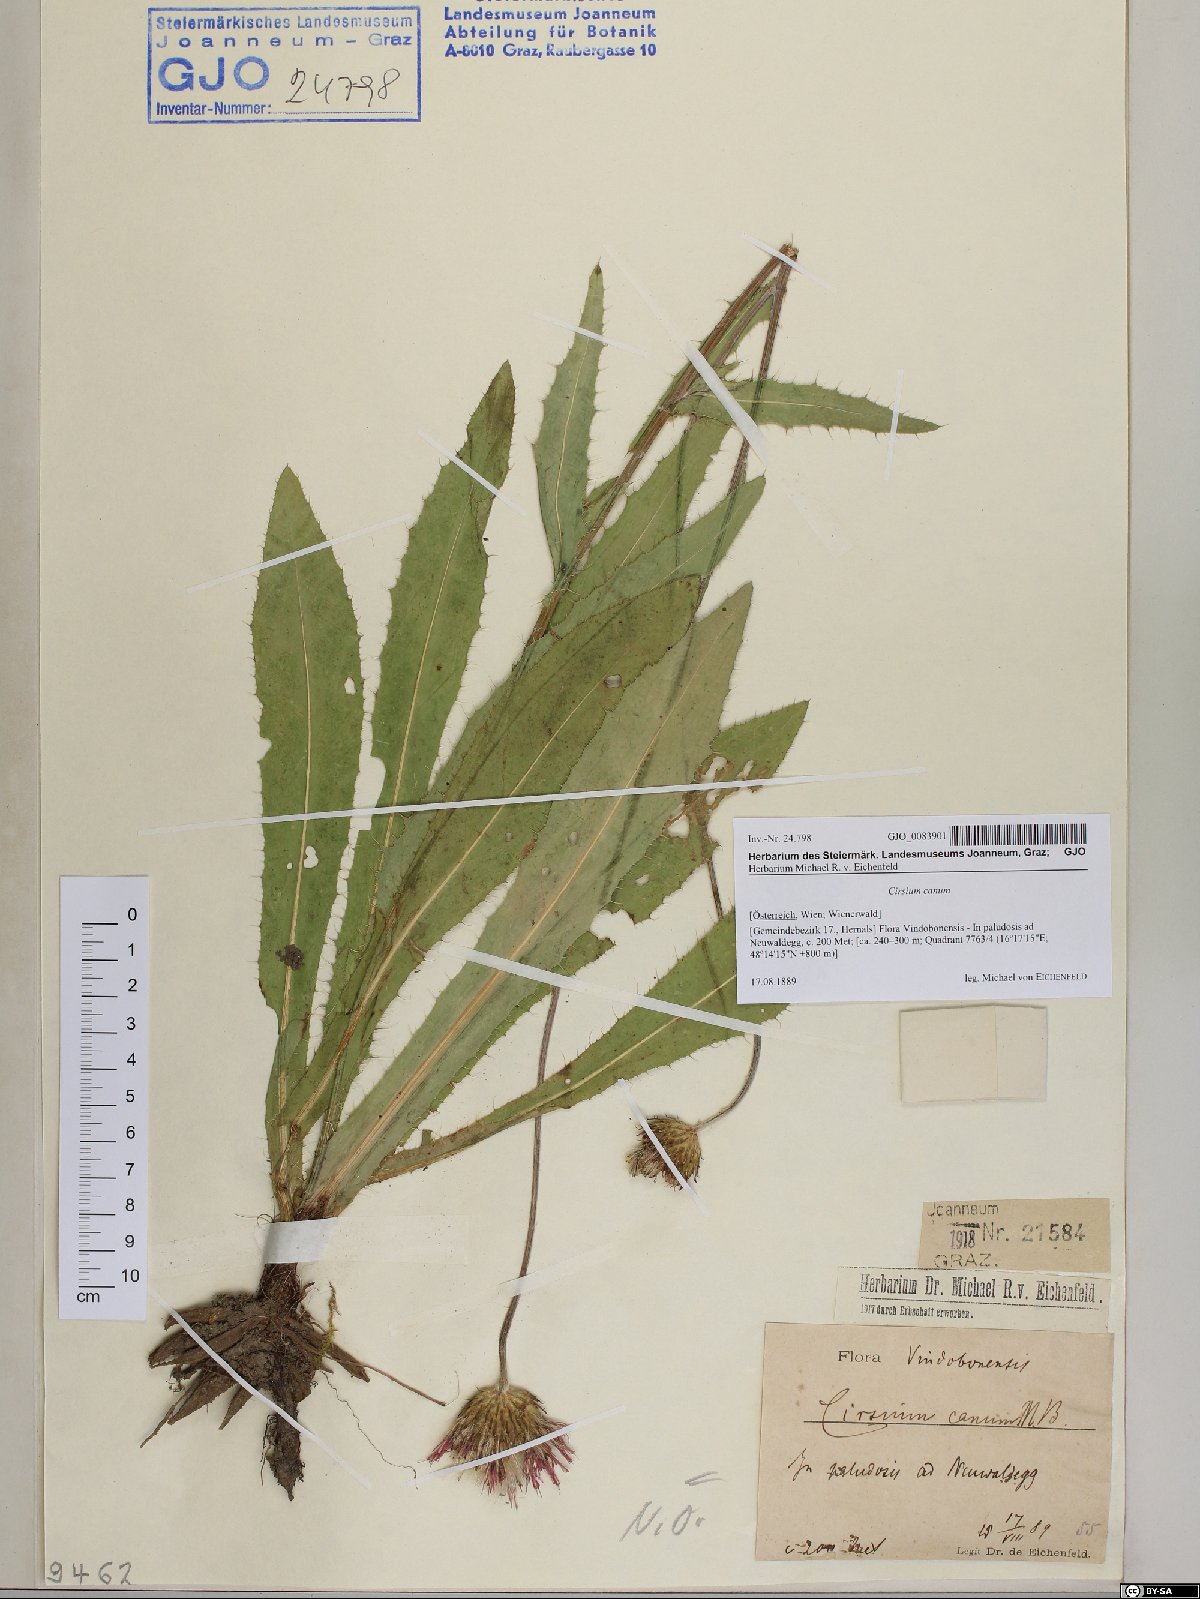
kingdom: Plantae
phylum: Tracheophyta
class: Magnoliopsida
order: Asterales
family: Asteraceae
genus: Cirsium
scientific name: Cirsium canum
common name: Queen anne's thistle
